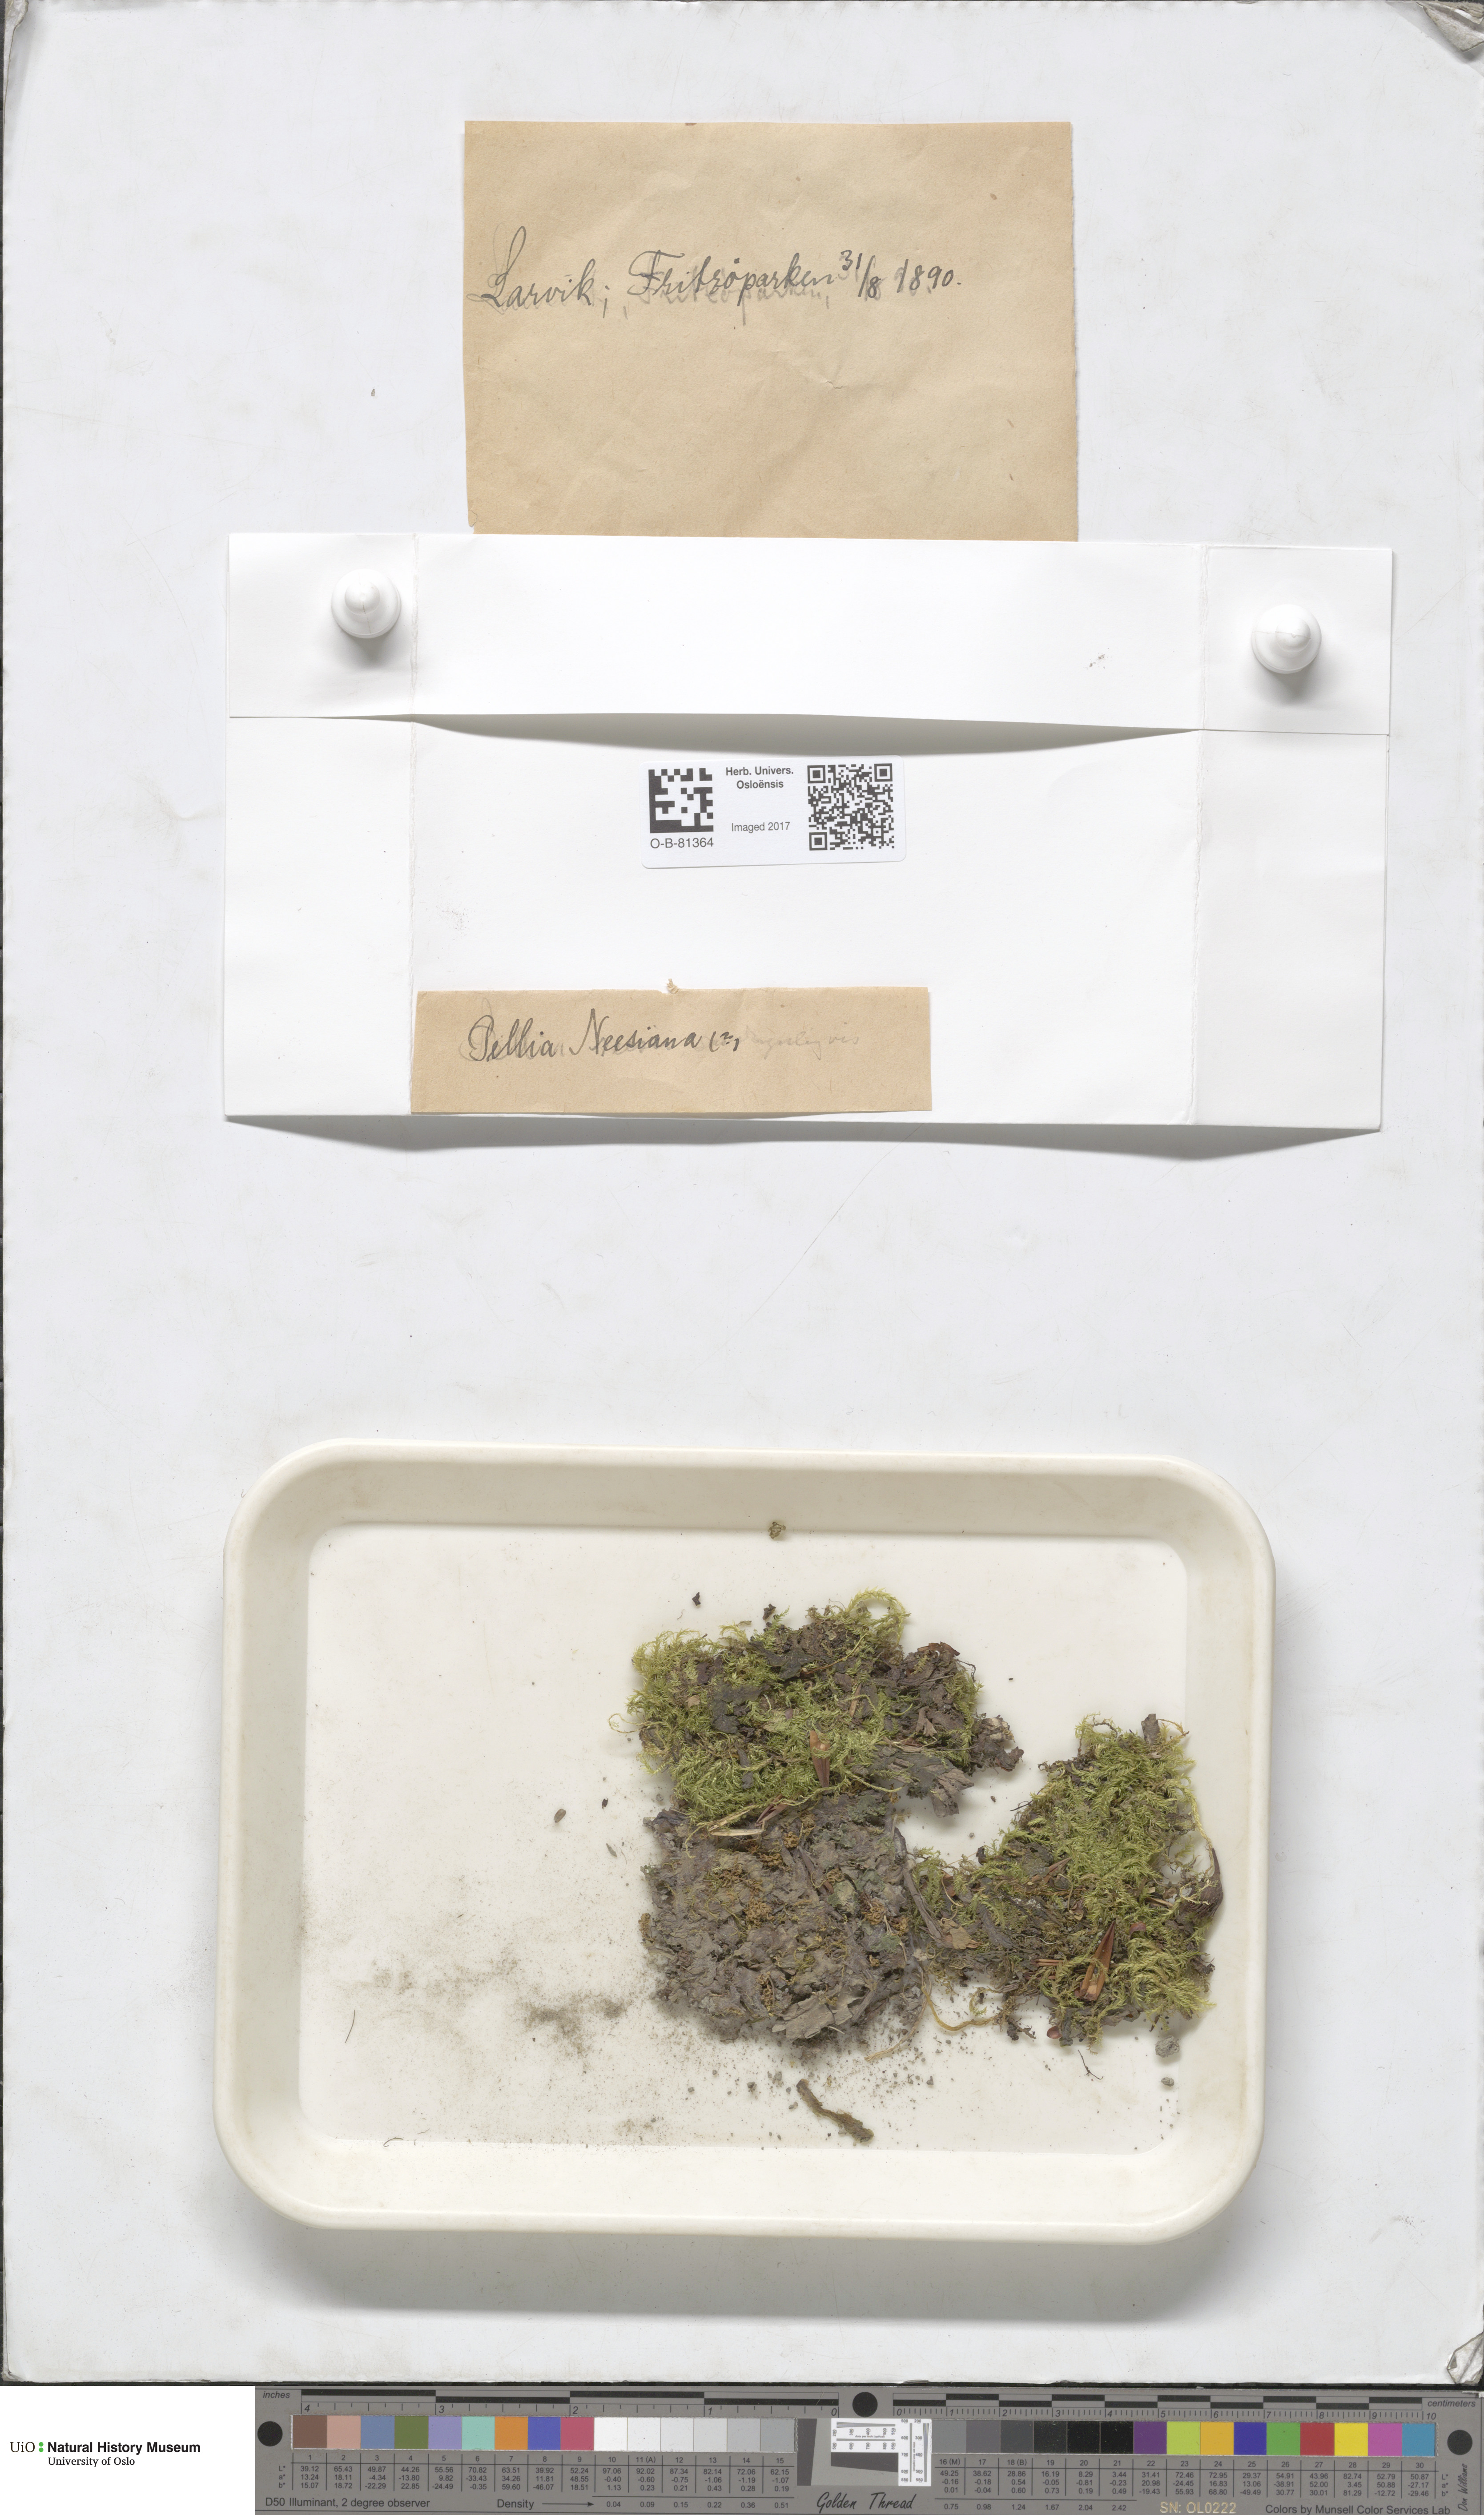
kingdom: Plantae
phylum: Marchantiophyta
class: Jungermanniopsida
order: Pelliales
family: Pelliaceae
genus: Pellia
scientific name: Pellia neesiana
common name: Nees  pellia
